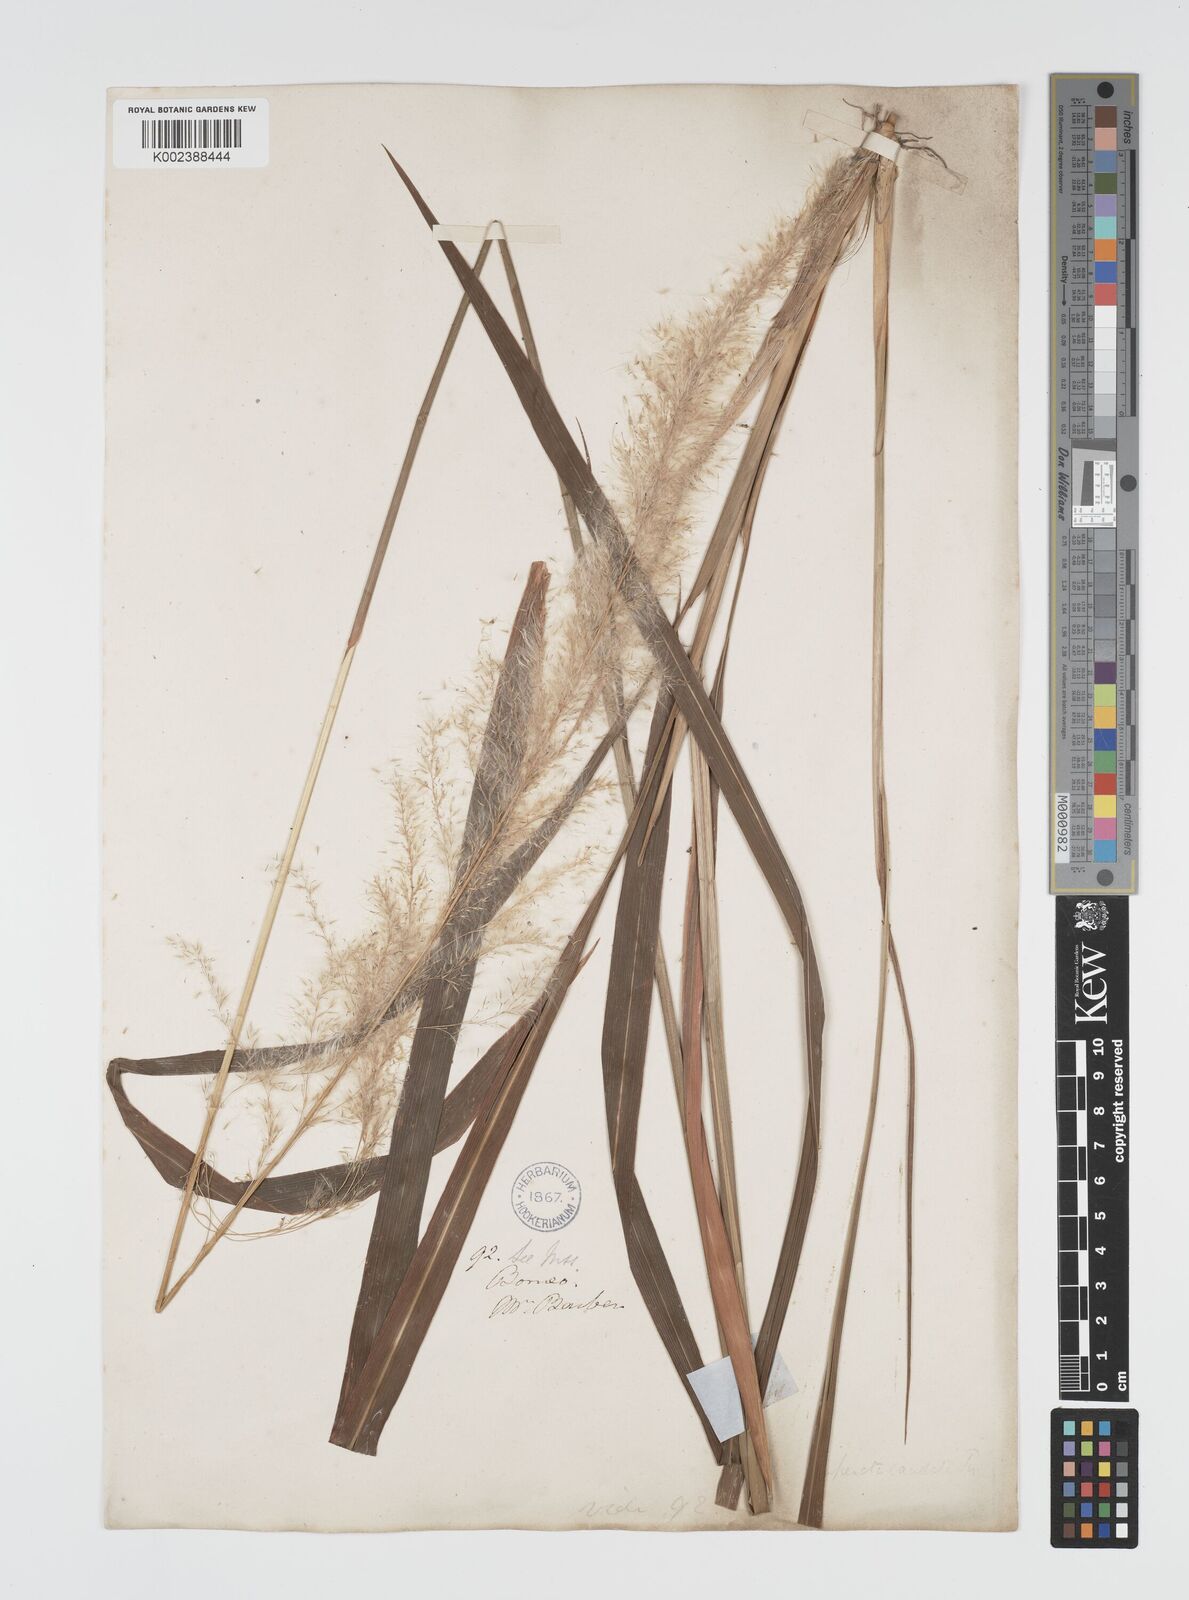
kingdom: Plantae
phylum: Tracheophyta
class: Liliopsida
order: Poales
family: Poaceae
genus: Imperata
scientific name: Imperata conferta
